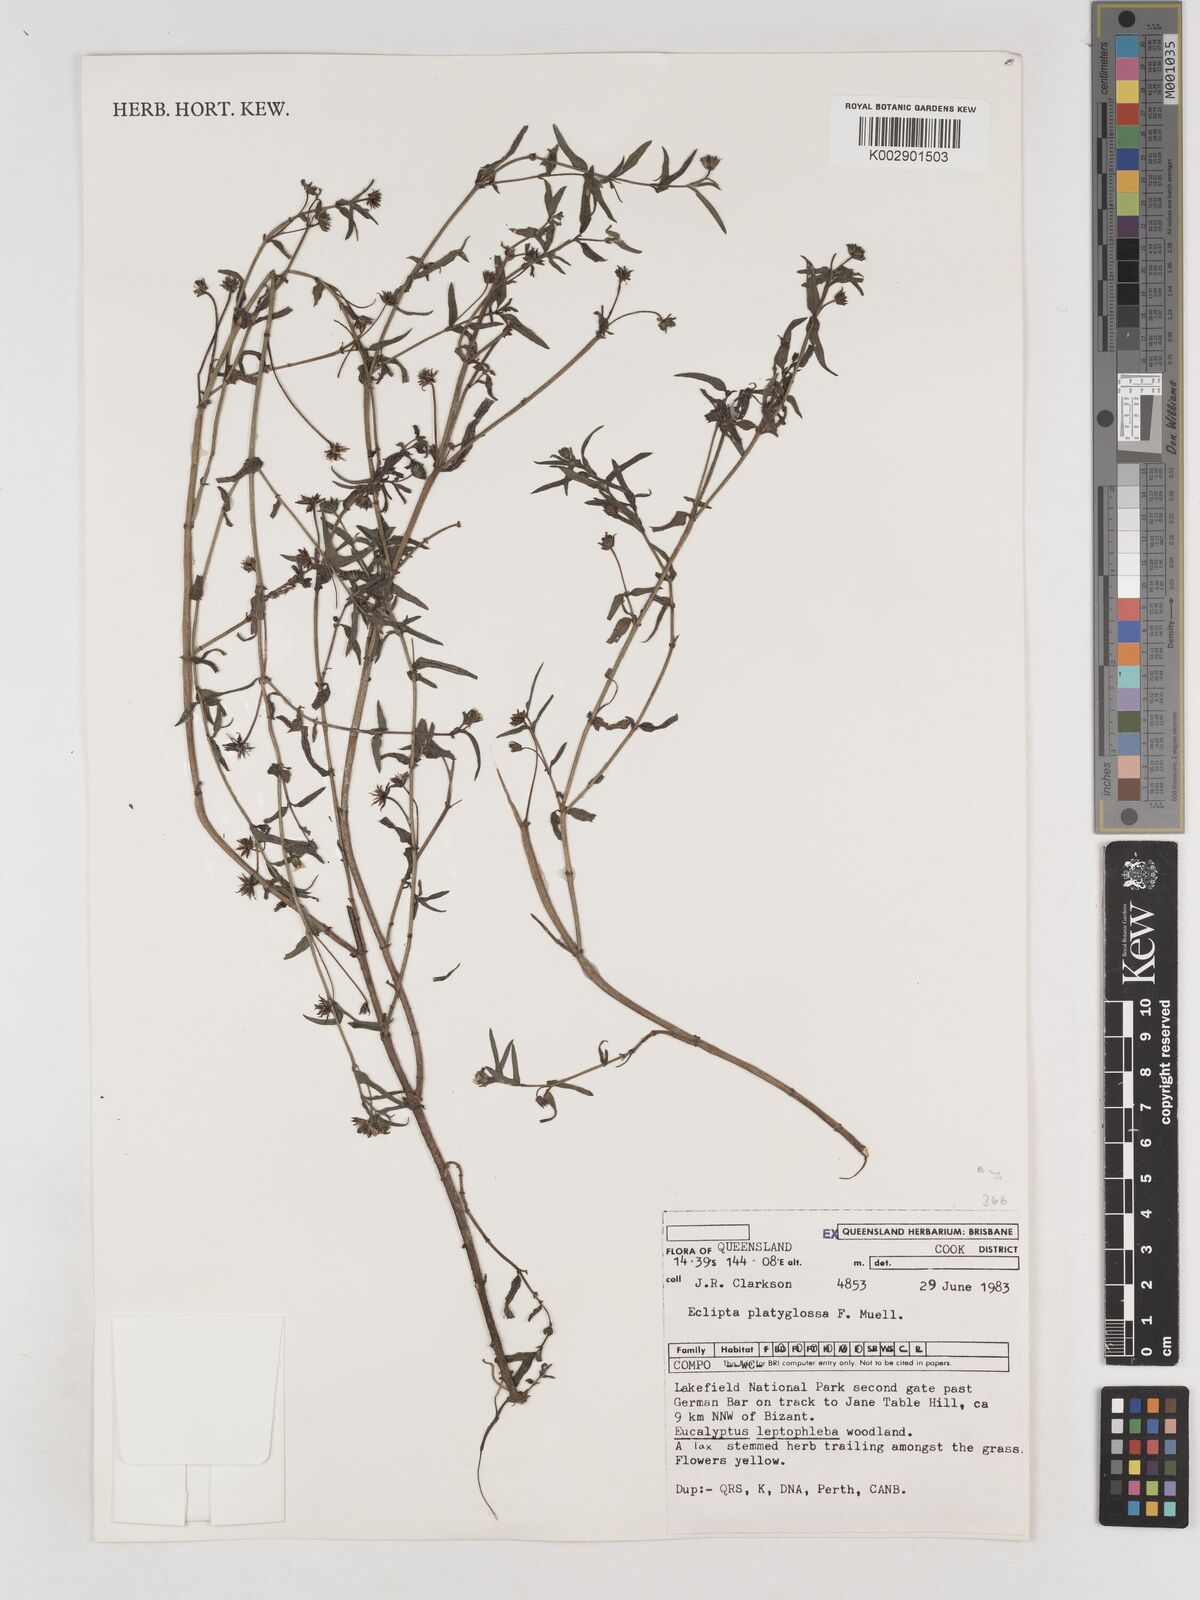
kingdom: Plantae
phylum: Tracheophyta
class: Magnoliopsida
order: Asterales
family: Asteraceae
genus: Eclipta
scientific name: Eclipta platyglossa
